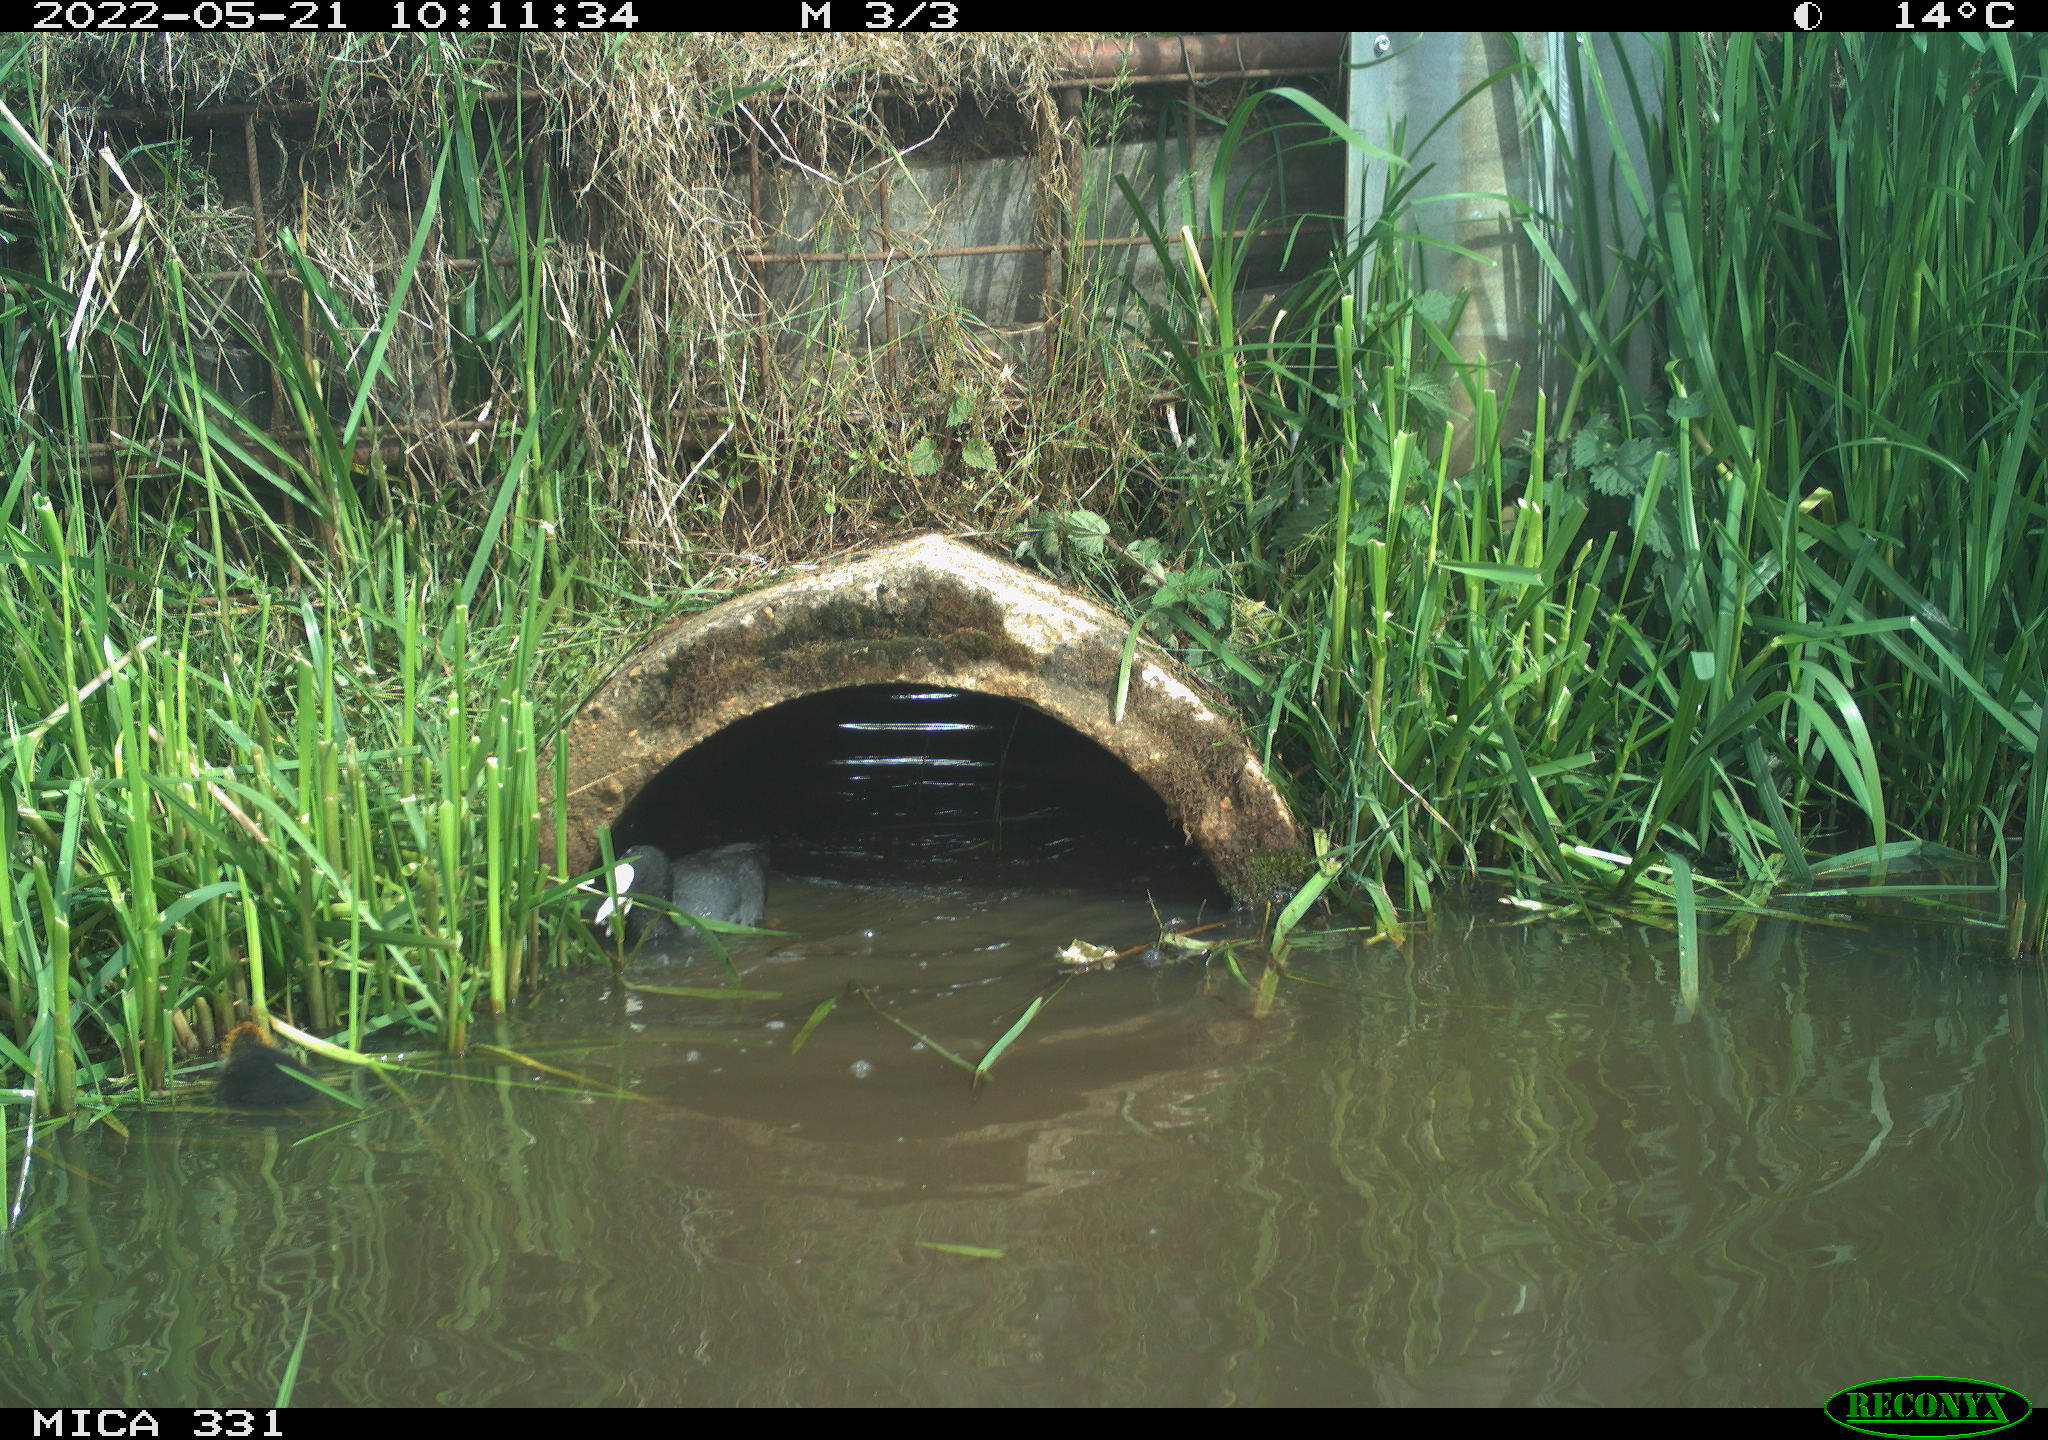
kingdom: Animalia
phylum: Chordata
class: Aves
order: Gruiformes
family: Rallidae
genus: Fulica
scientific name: Fulica atra
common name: Eurasian coot
